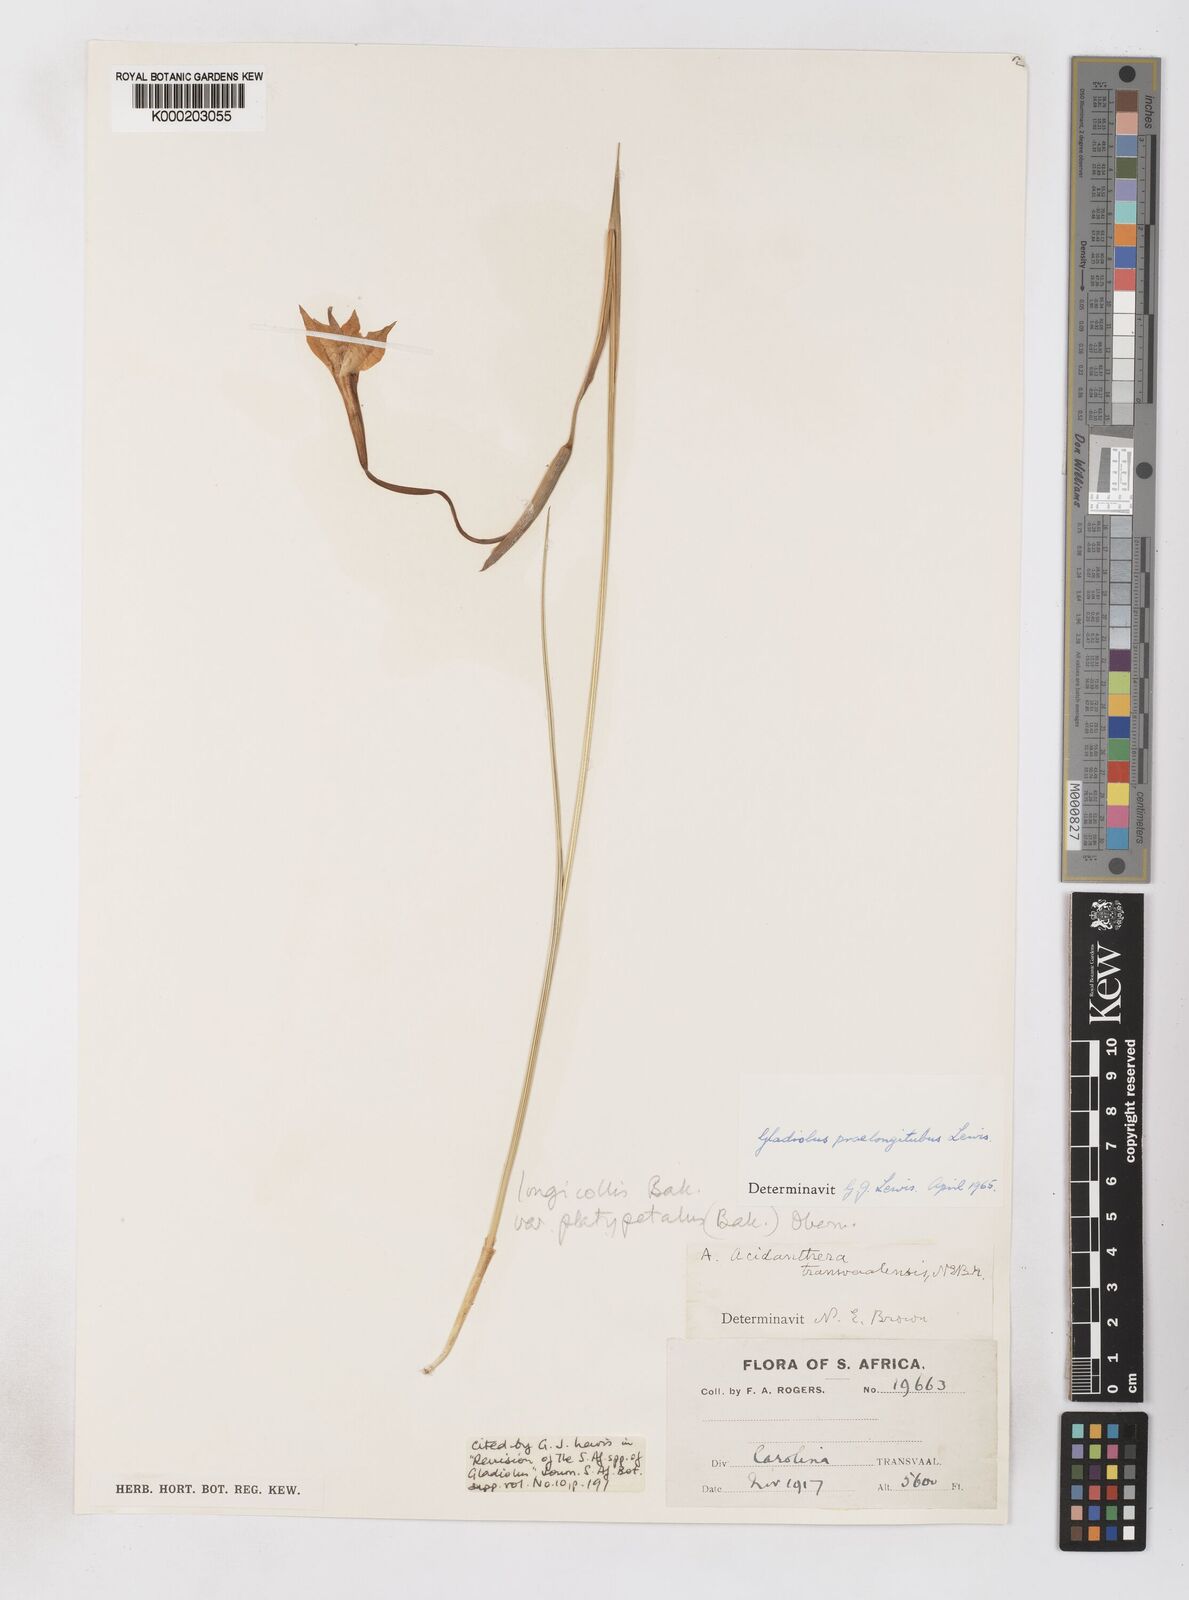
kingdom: Plantae
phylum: Tracheophyta
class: Liliopsida
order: Asparagales
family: Iridaceae
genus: Gladiolus
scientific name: Gladiolus longicollis
